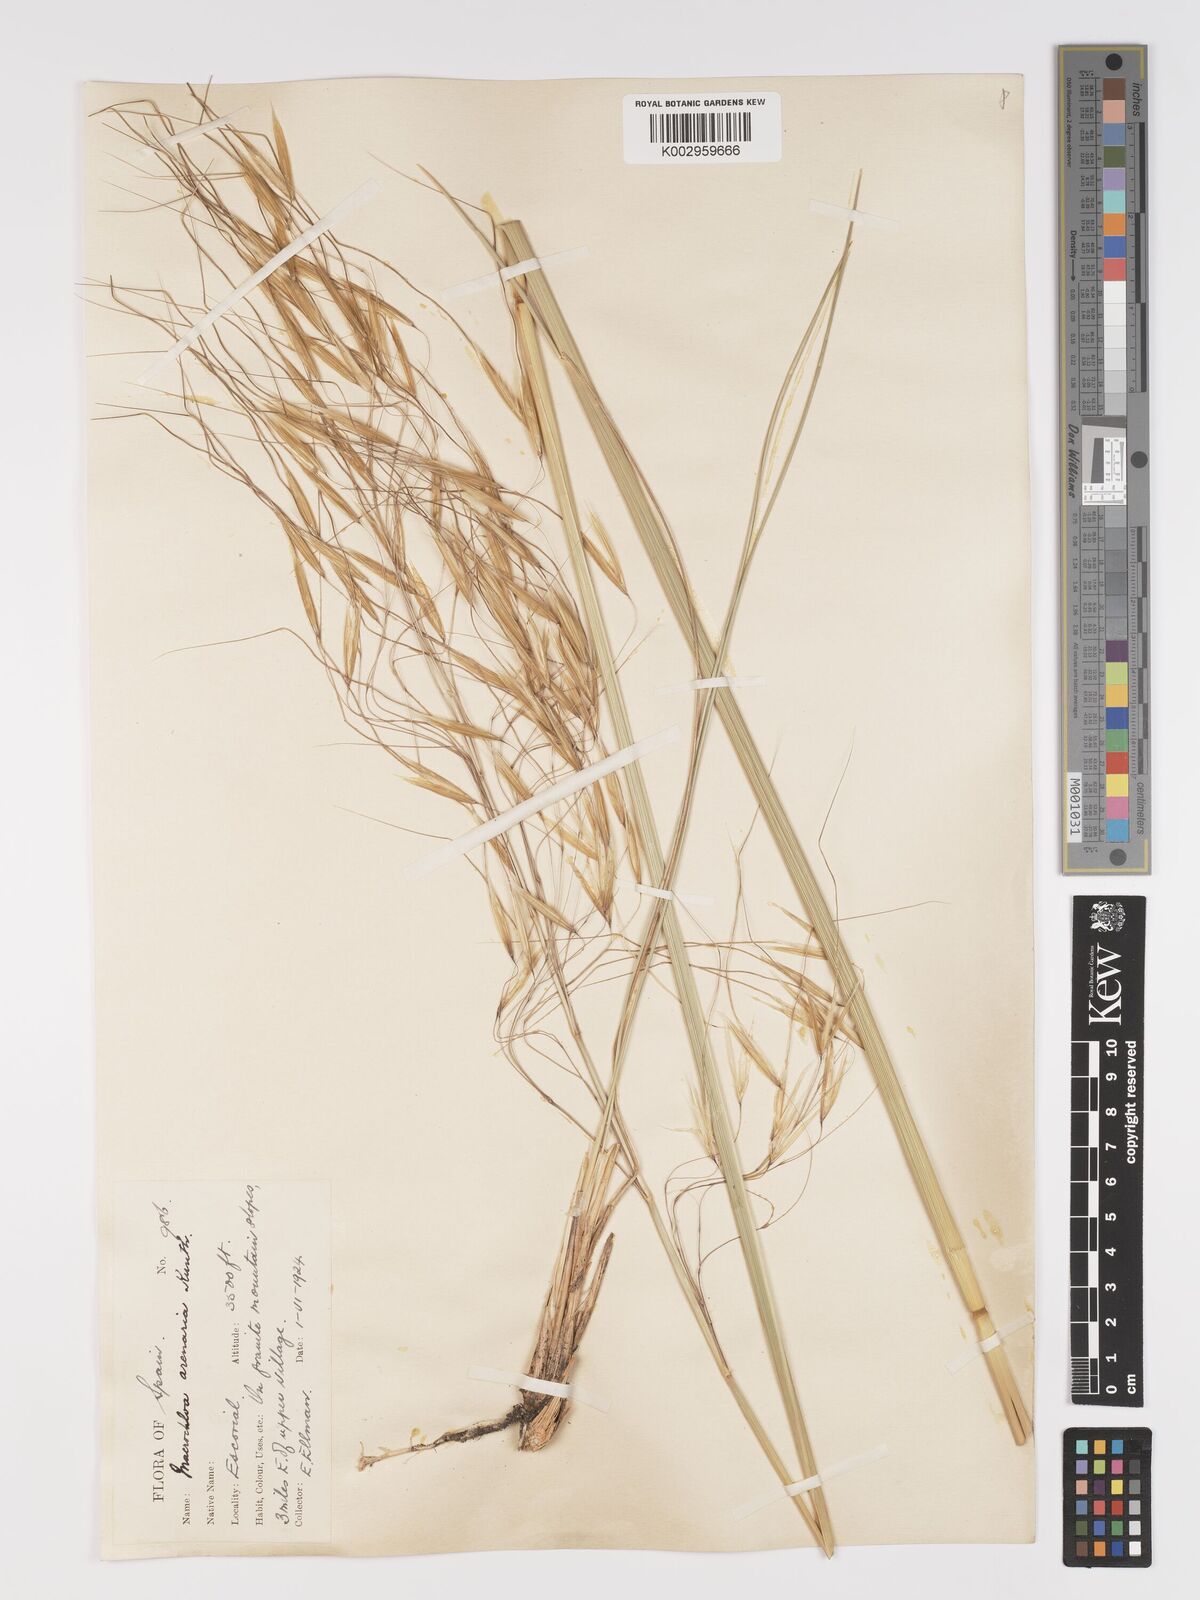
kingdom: Plantae
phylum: Tracheophyta
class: Liliopsida
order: Poales
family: Poaceae
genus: Celtica
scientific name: Celtica gigantea
